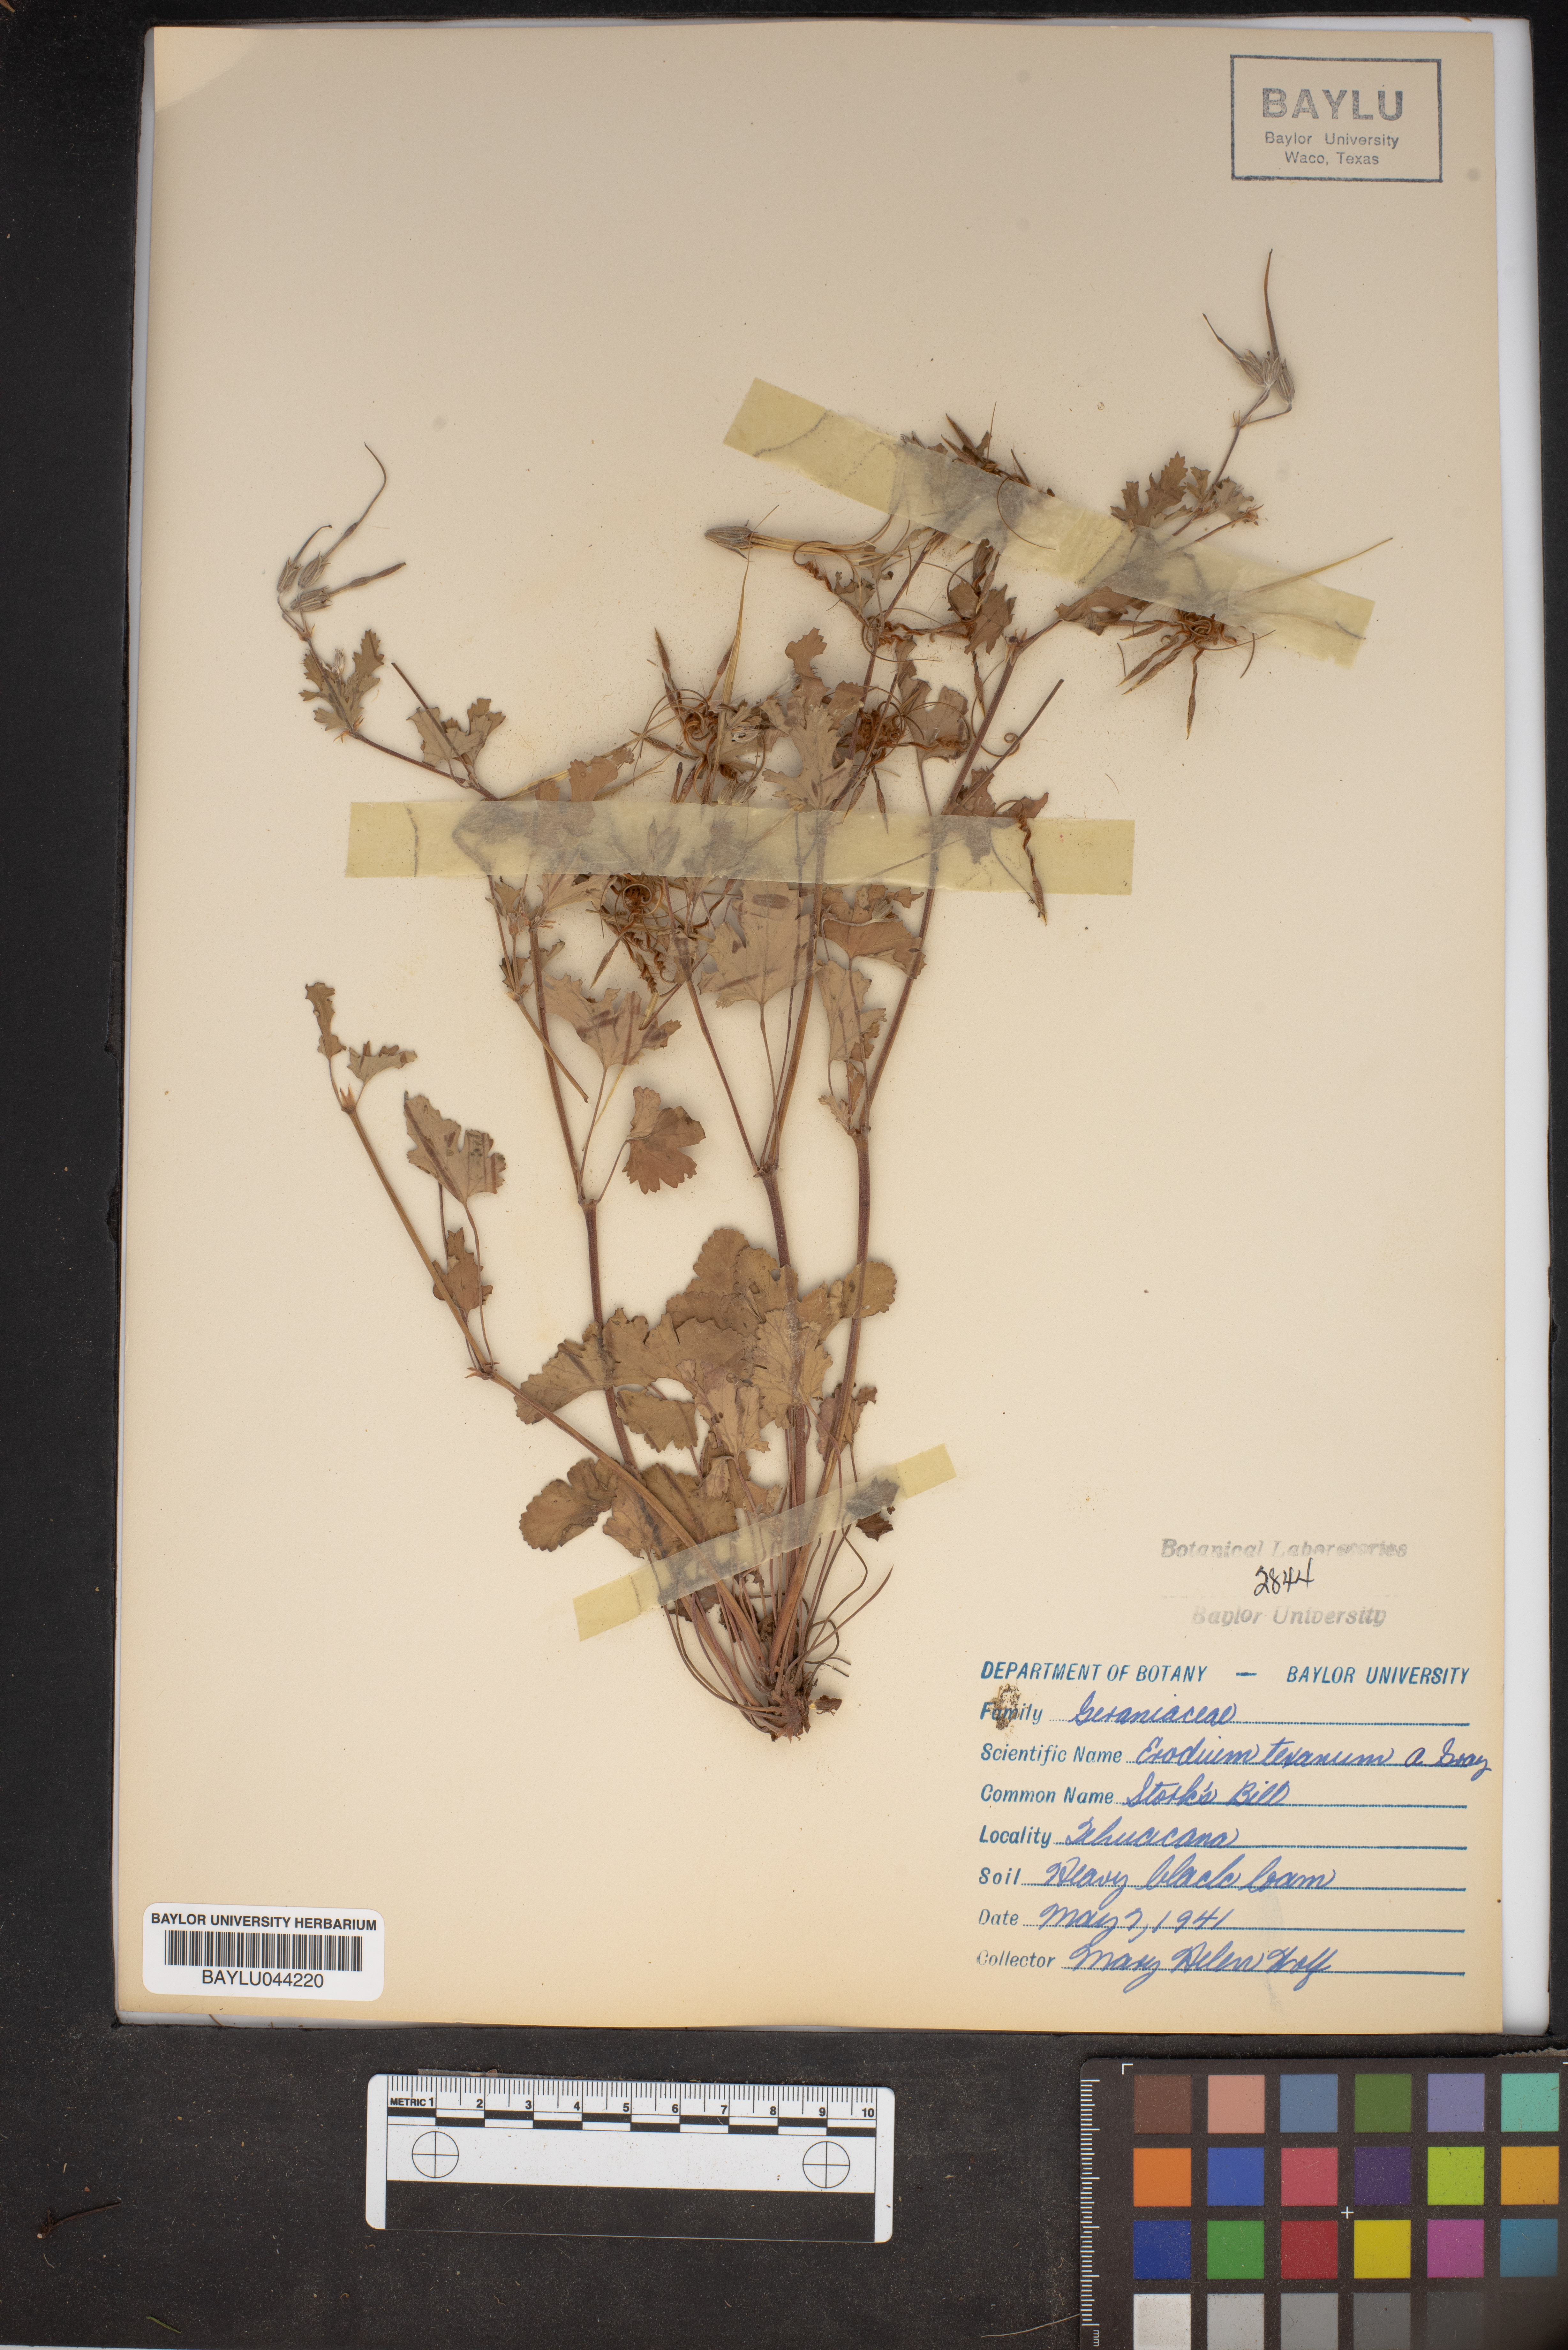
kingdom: Plantae
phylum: Tracheophyta
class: Magnoliopsida
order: Geraniales
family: Geraniaceae
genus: Erodium
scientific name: Erodium texanum
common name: Texas stork's-bill
